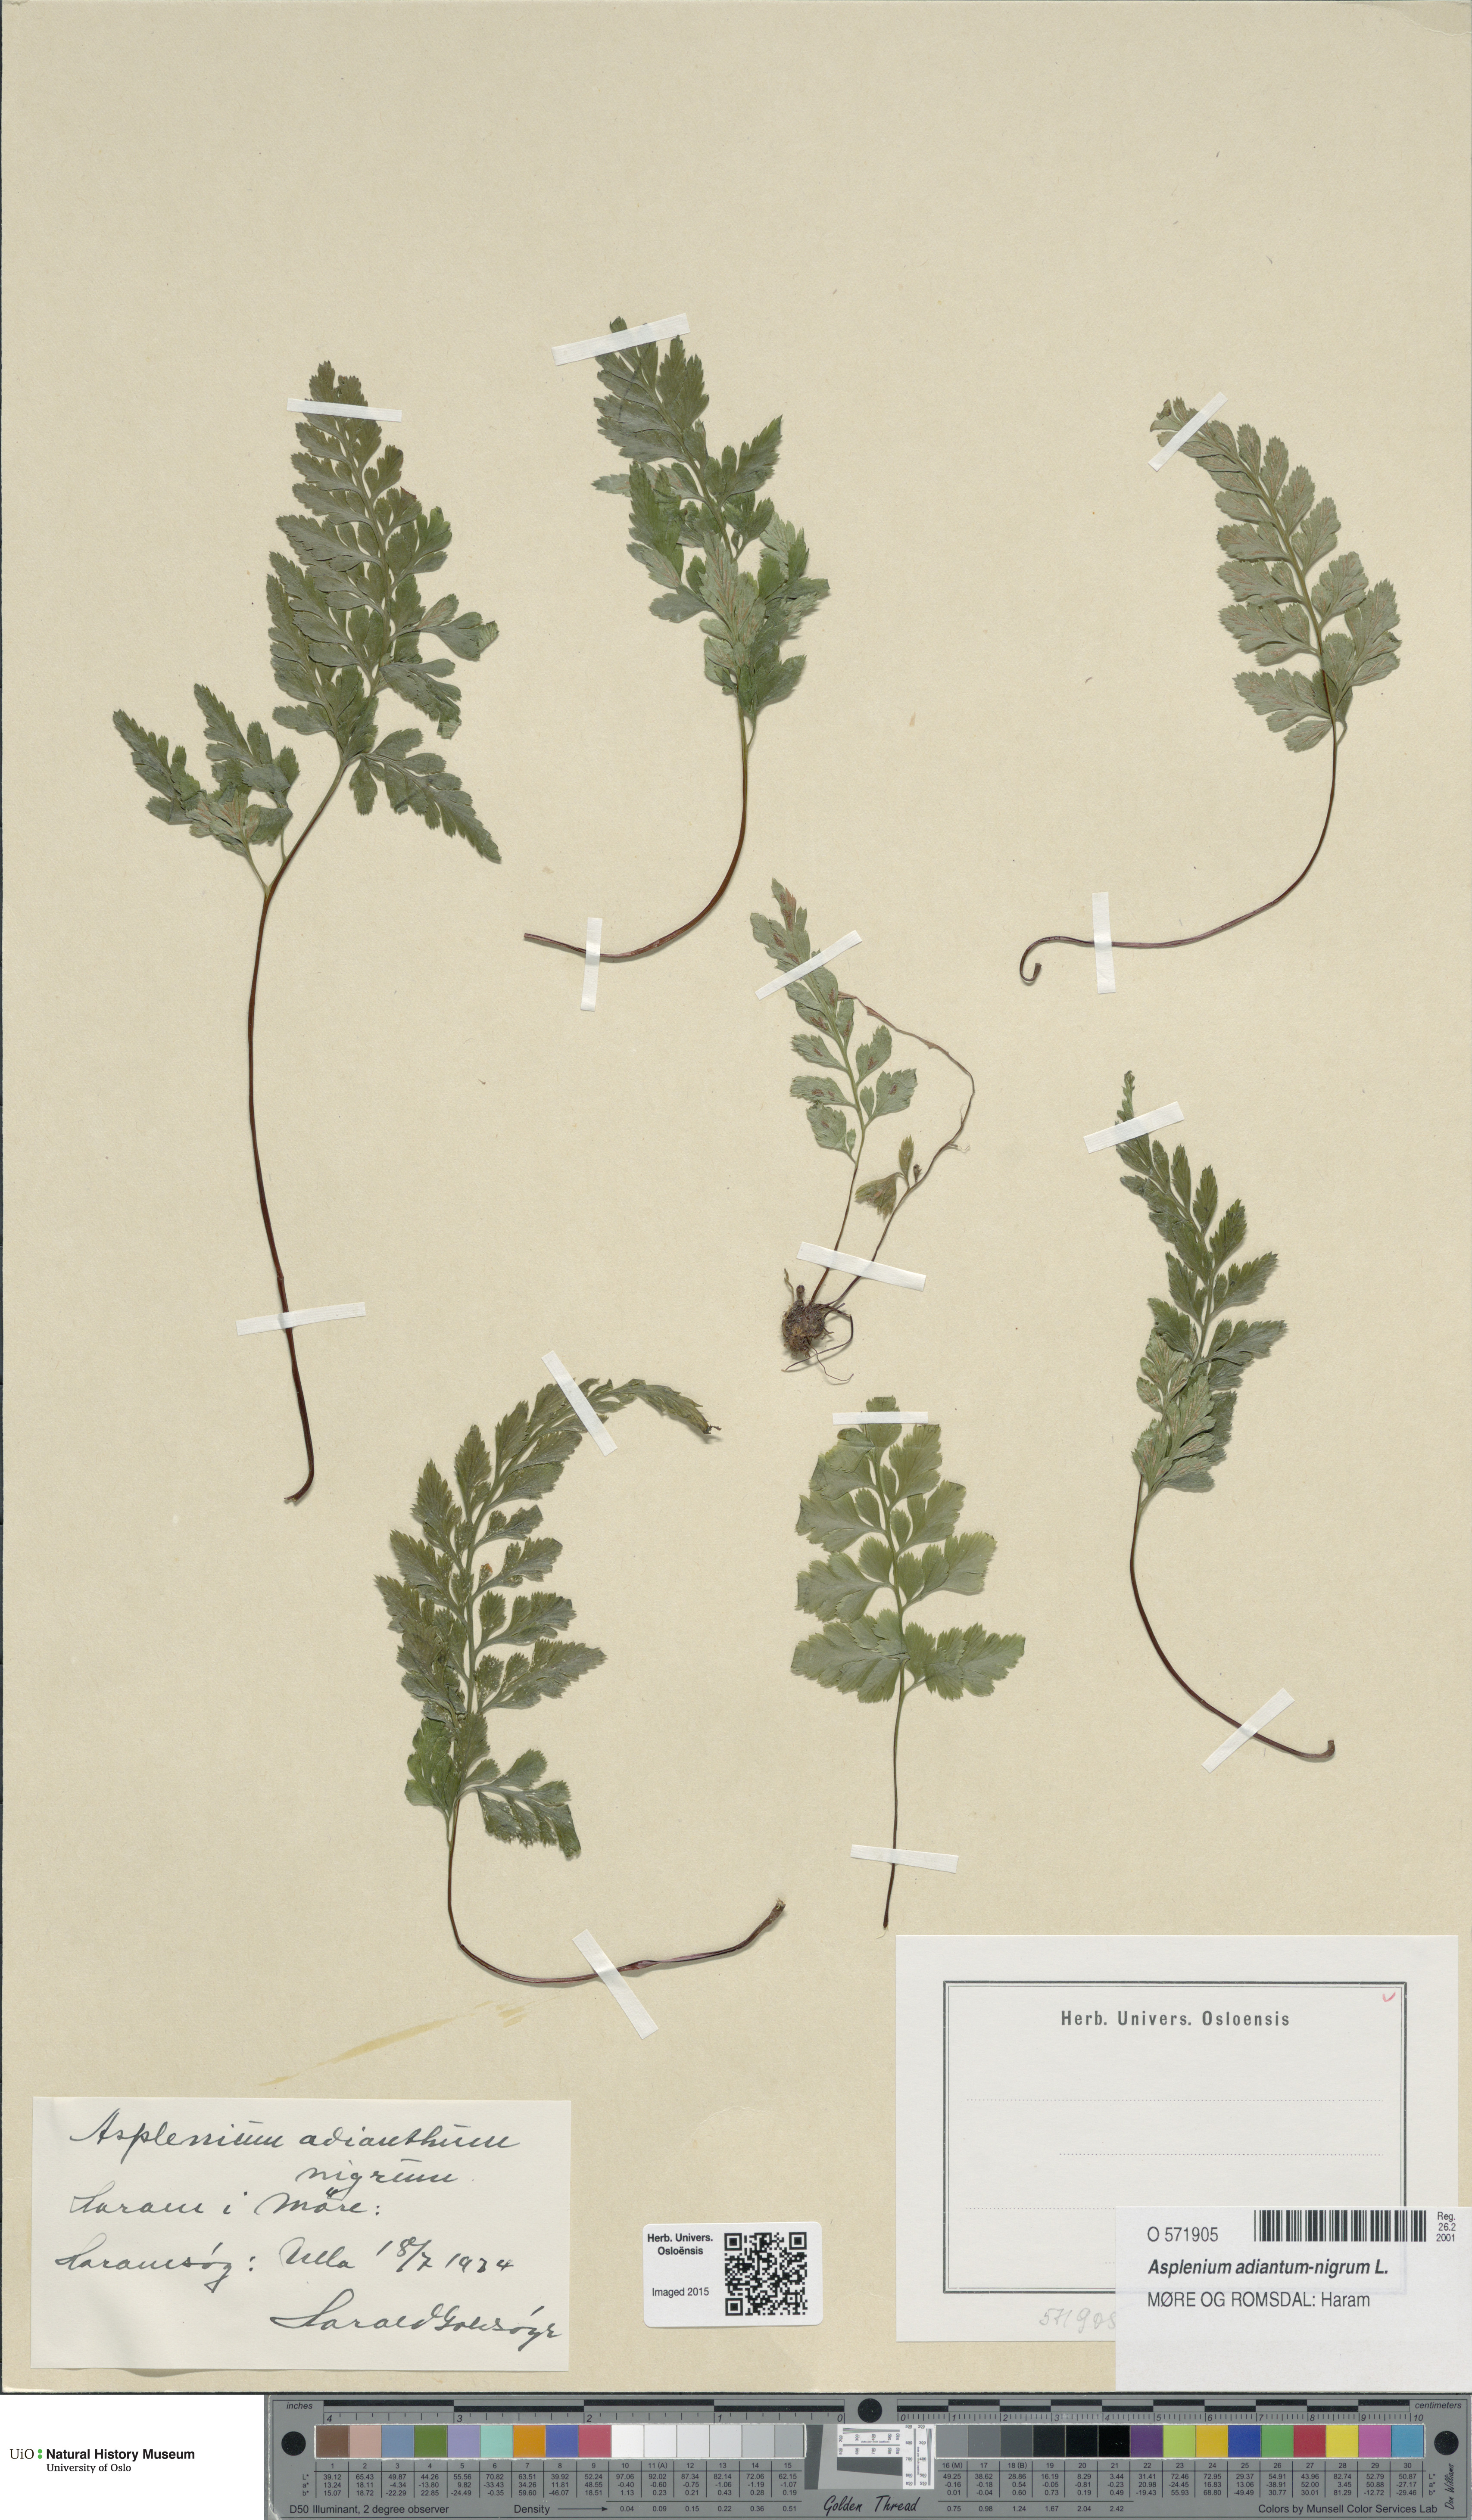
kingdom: Plantae
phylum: Tracheophyta
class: Polypodiopsida
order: Polypodiales
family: Aspleniaceae
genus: Asplenium
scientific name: Asplenium adiantum-nigrum
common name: Black spleenwort
